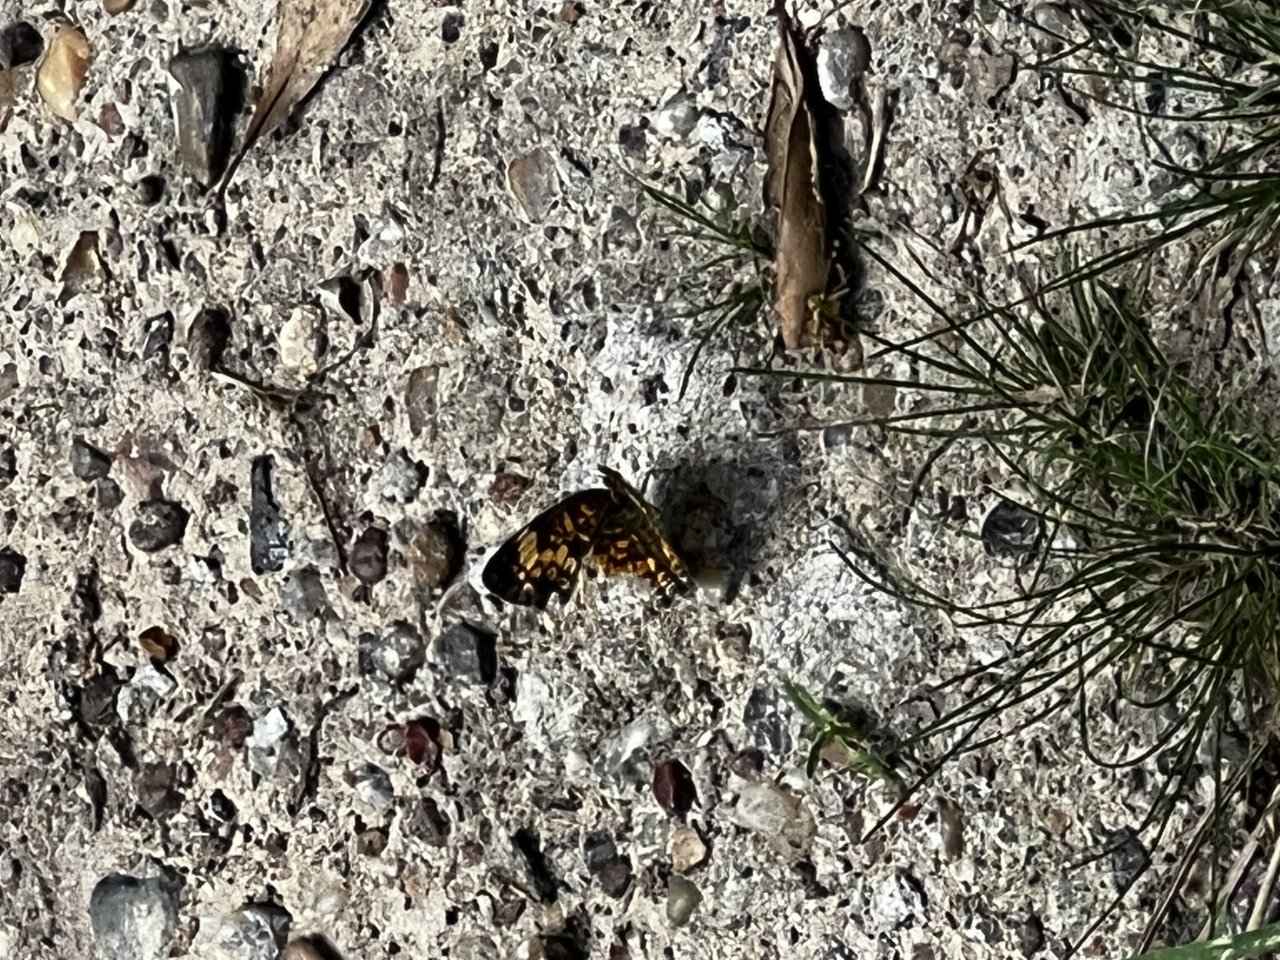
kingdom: Animalia
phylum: Arthropoda
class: Insecta
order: Lepidoptera
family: Nymphalidae
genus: Chlosyne
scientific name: Chlosyne gorgone
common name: Gorgone Checkerspot
